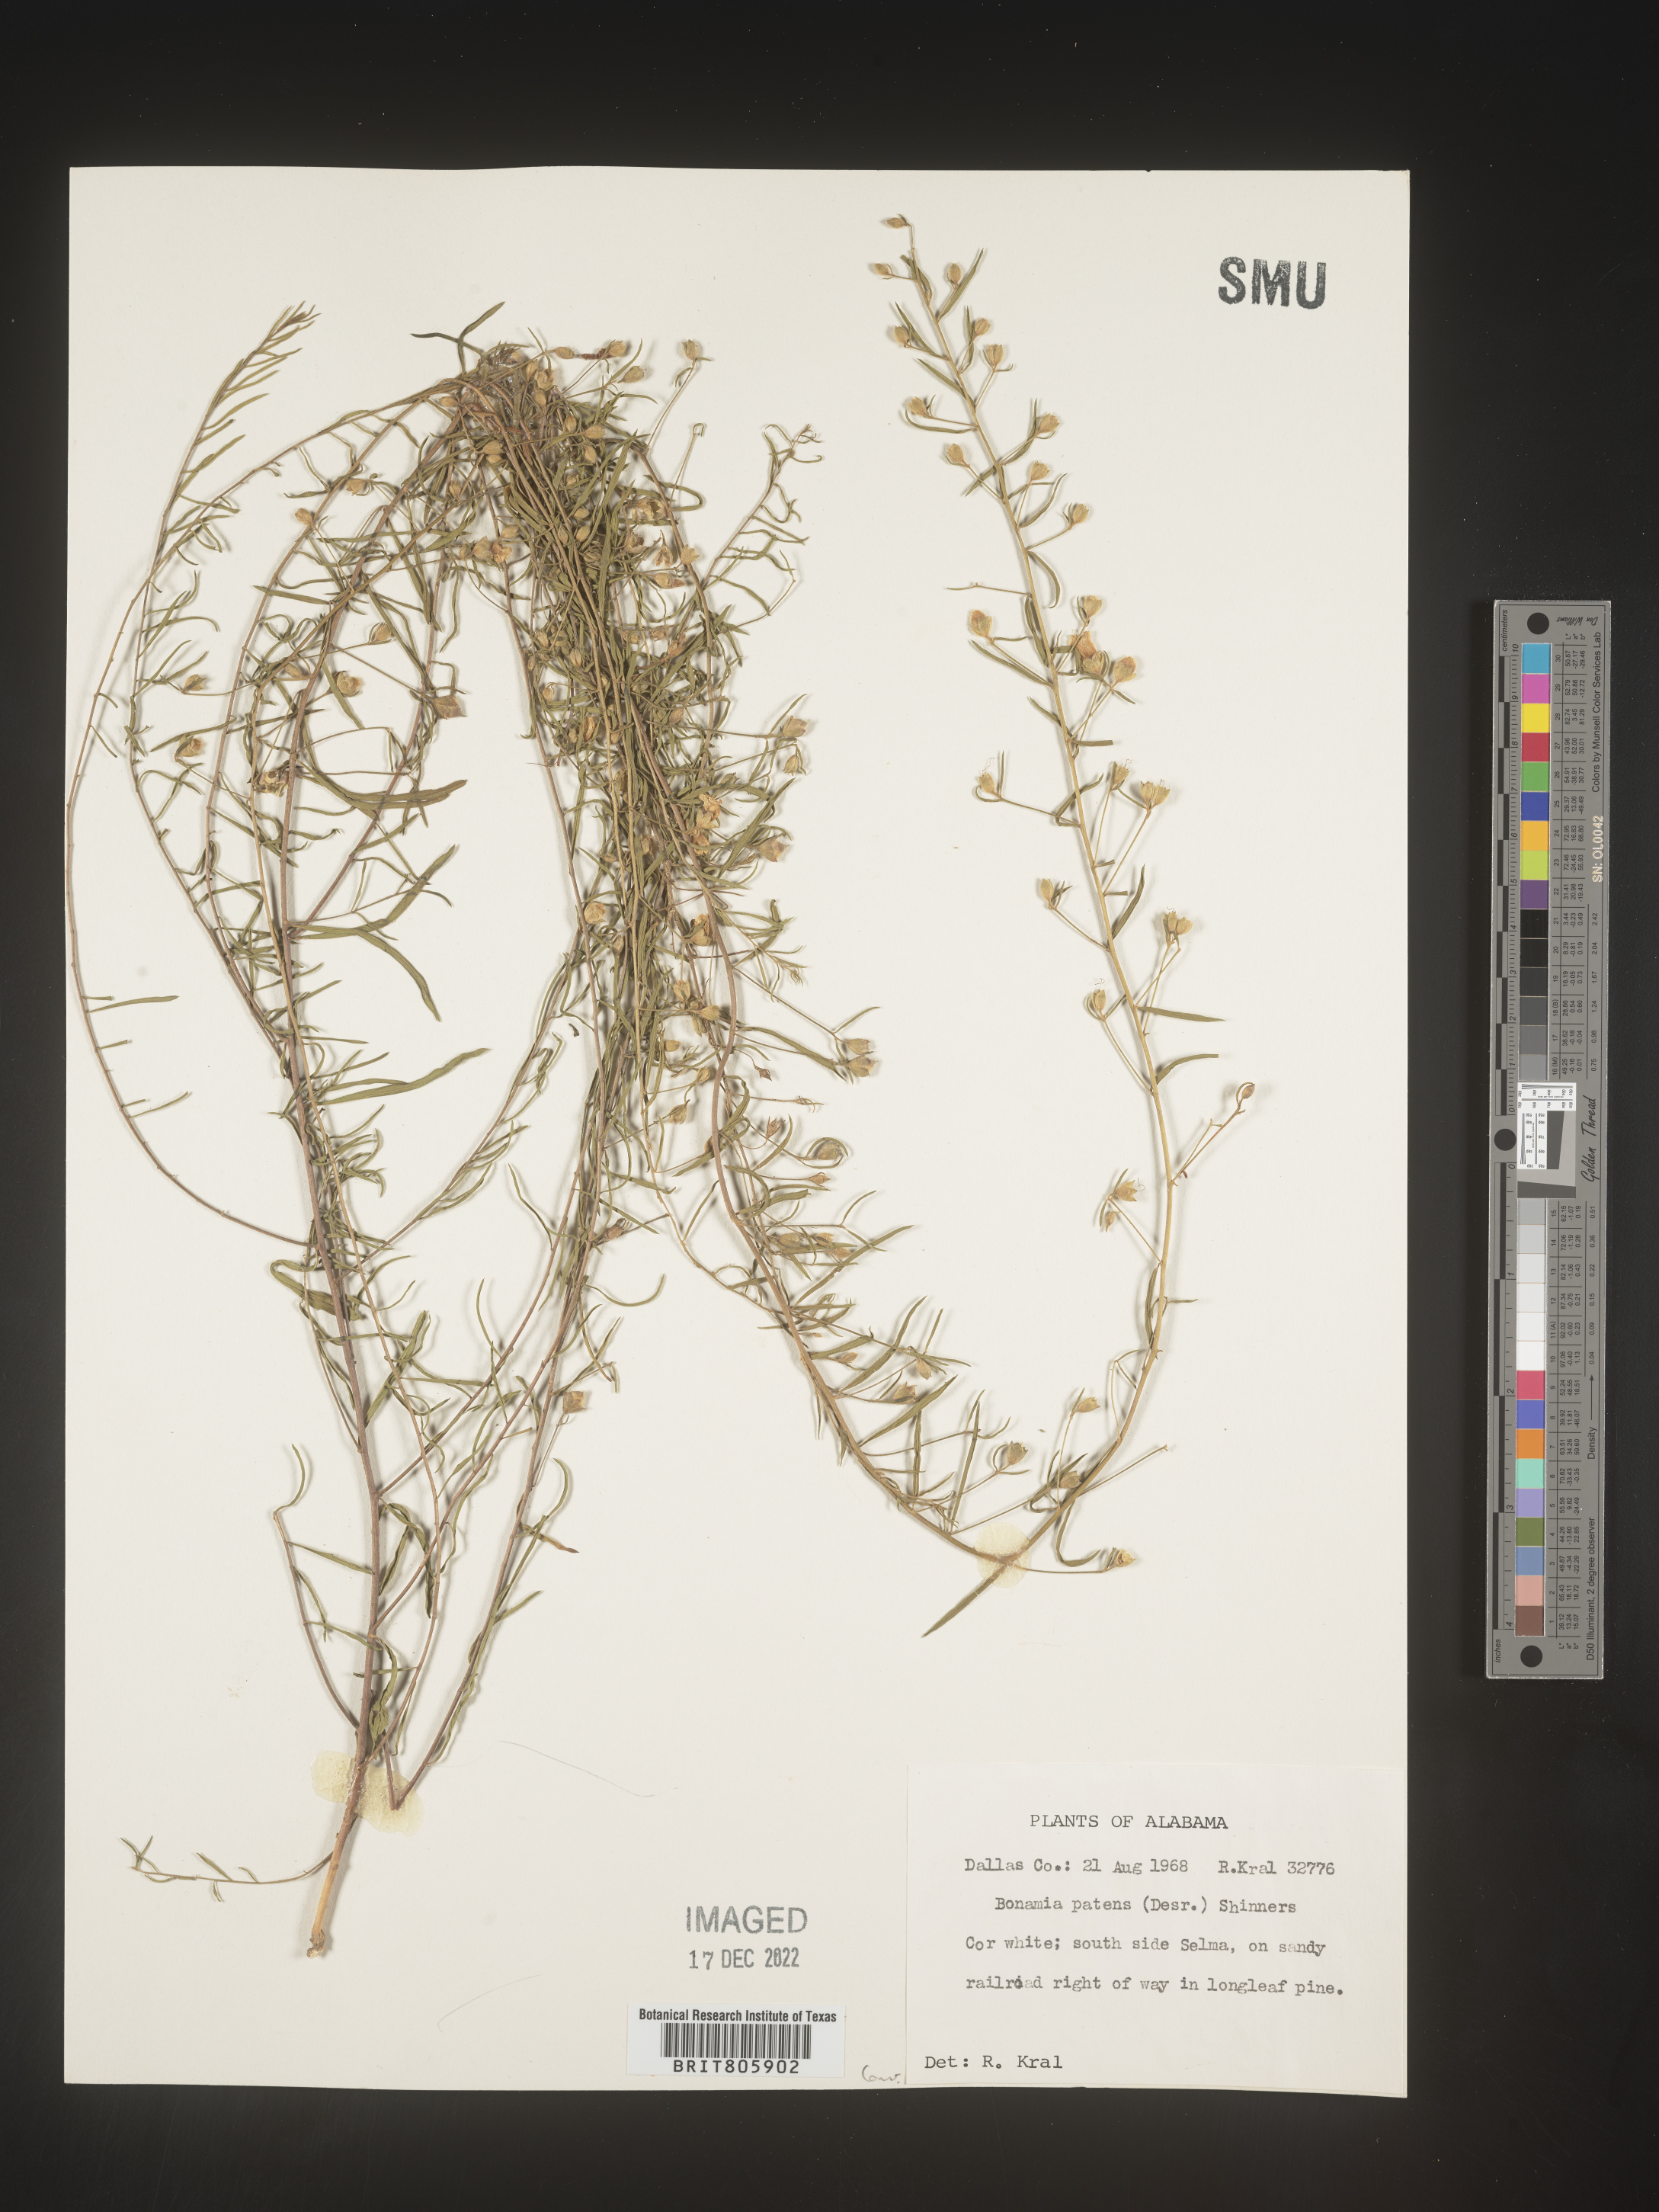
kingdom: Plantae
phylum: Tracheophyta
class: Magnoliopsida
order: Solanales
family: Convolvulaceae
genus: Stylisma
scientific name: Stylisma
